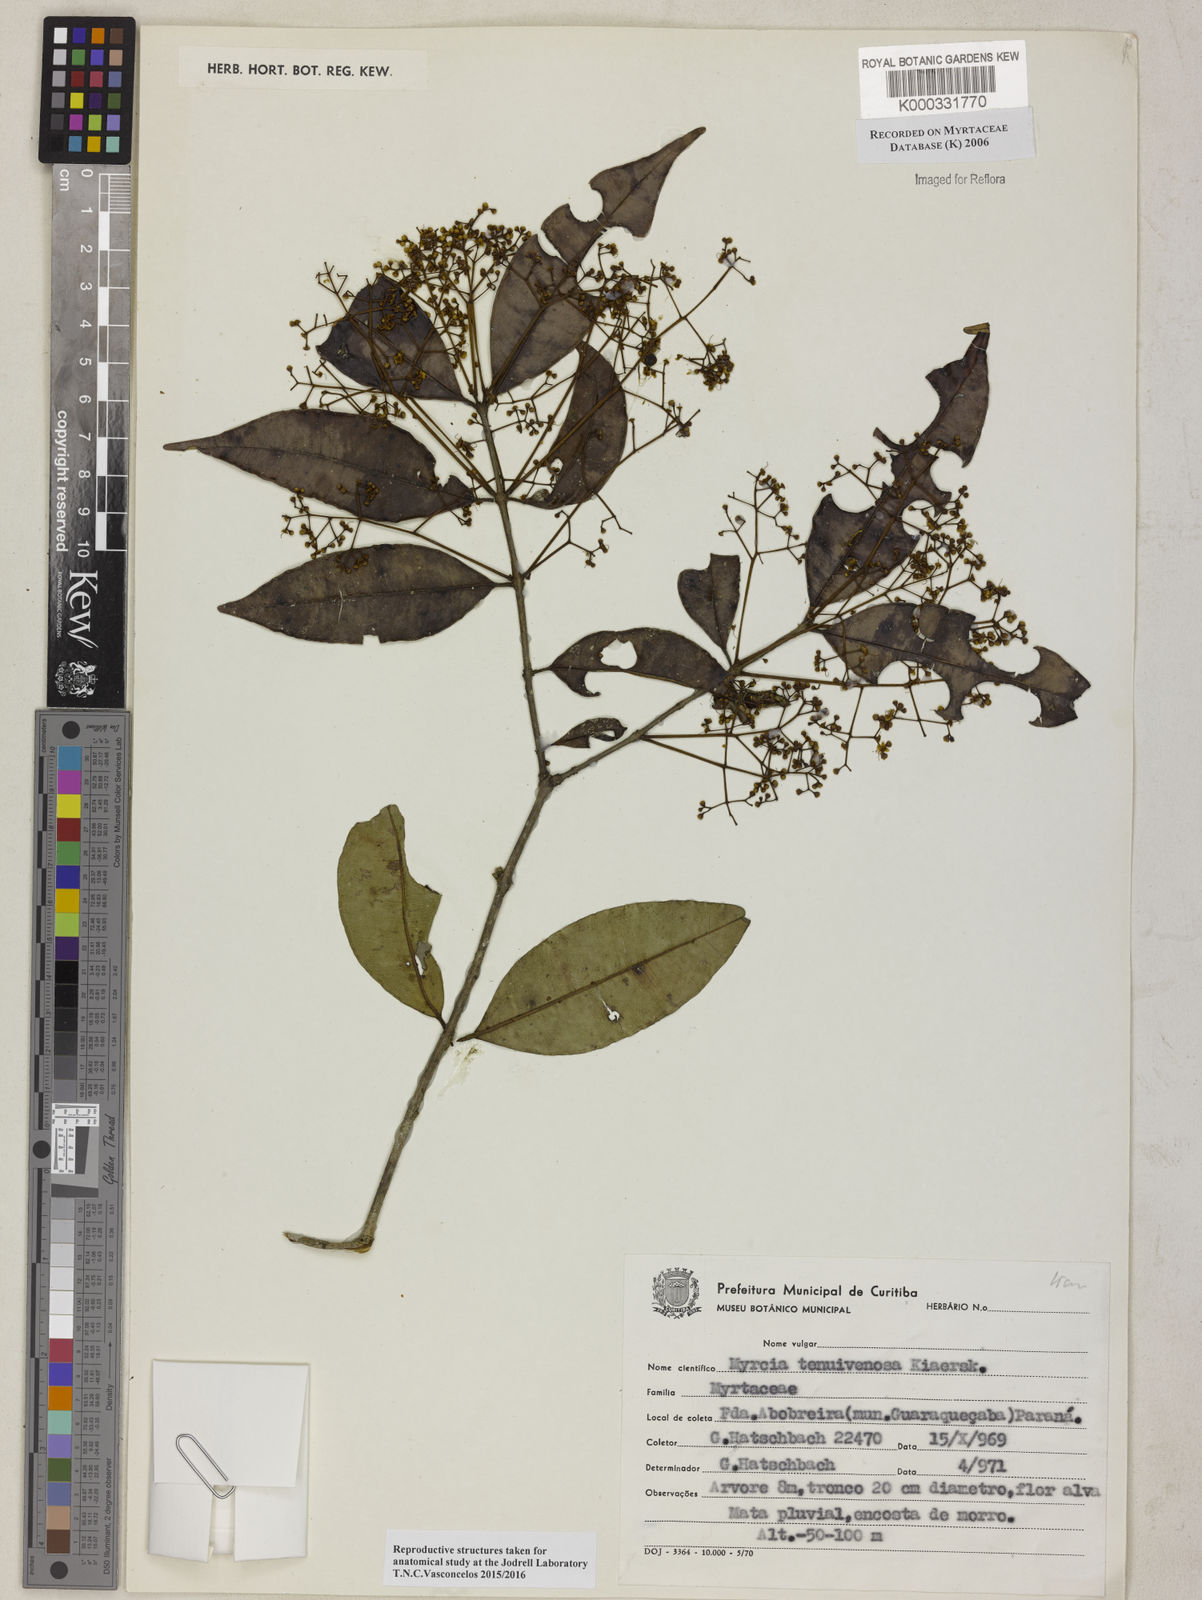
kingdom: Plantae
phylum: Tracheophyta
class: Magnoliopsida
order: Myrtales
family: Myrtaceae
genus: Myrcia
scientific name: Myrcia tenuivenosa
